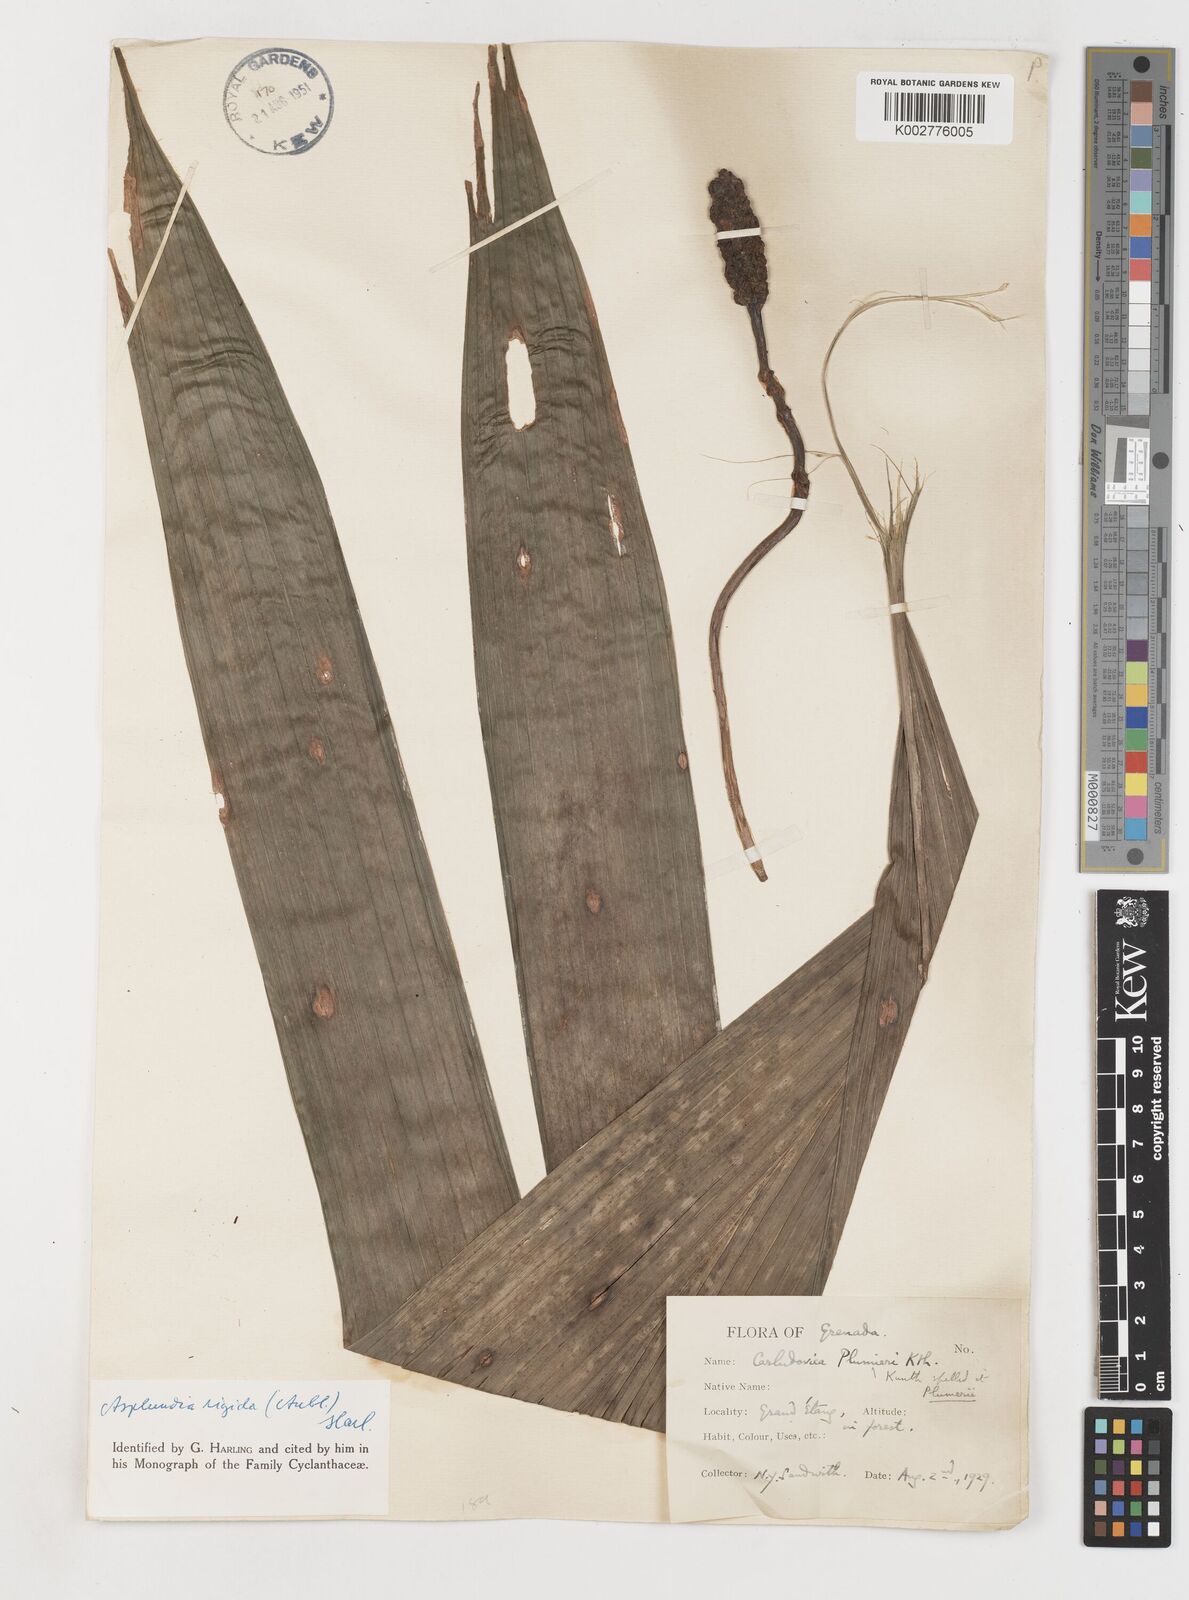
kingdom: Plantae
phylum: Tracheophyta
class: Liliopsida
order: Pandanales
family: Cyclanthaceae
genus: Asplundia
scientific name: Asplundia rigida
